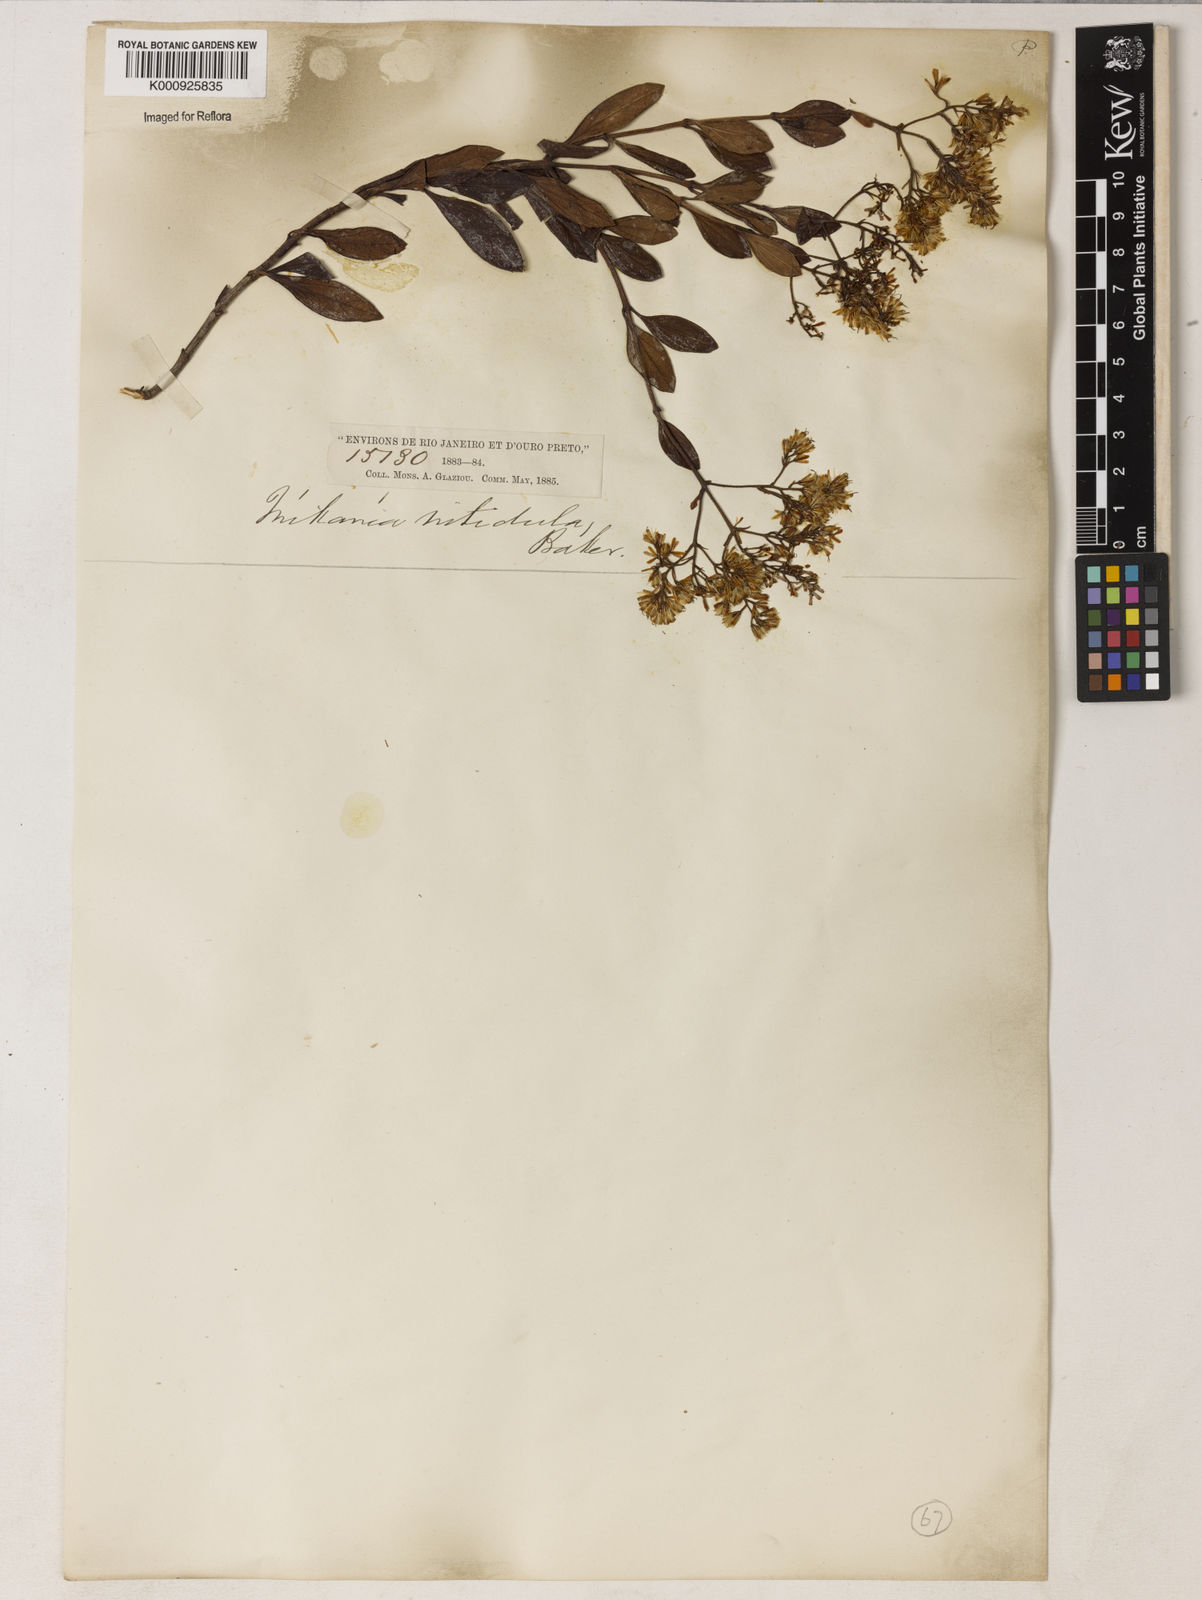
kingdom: Plantae
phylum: Tracheophyta
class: Magnoliopsida
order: Asterales
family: Asteraceae
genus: Mikania
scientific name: Mikania lindbergii
